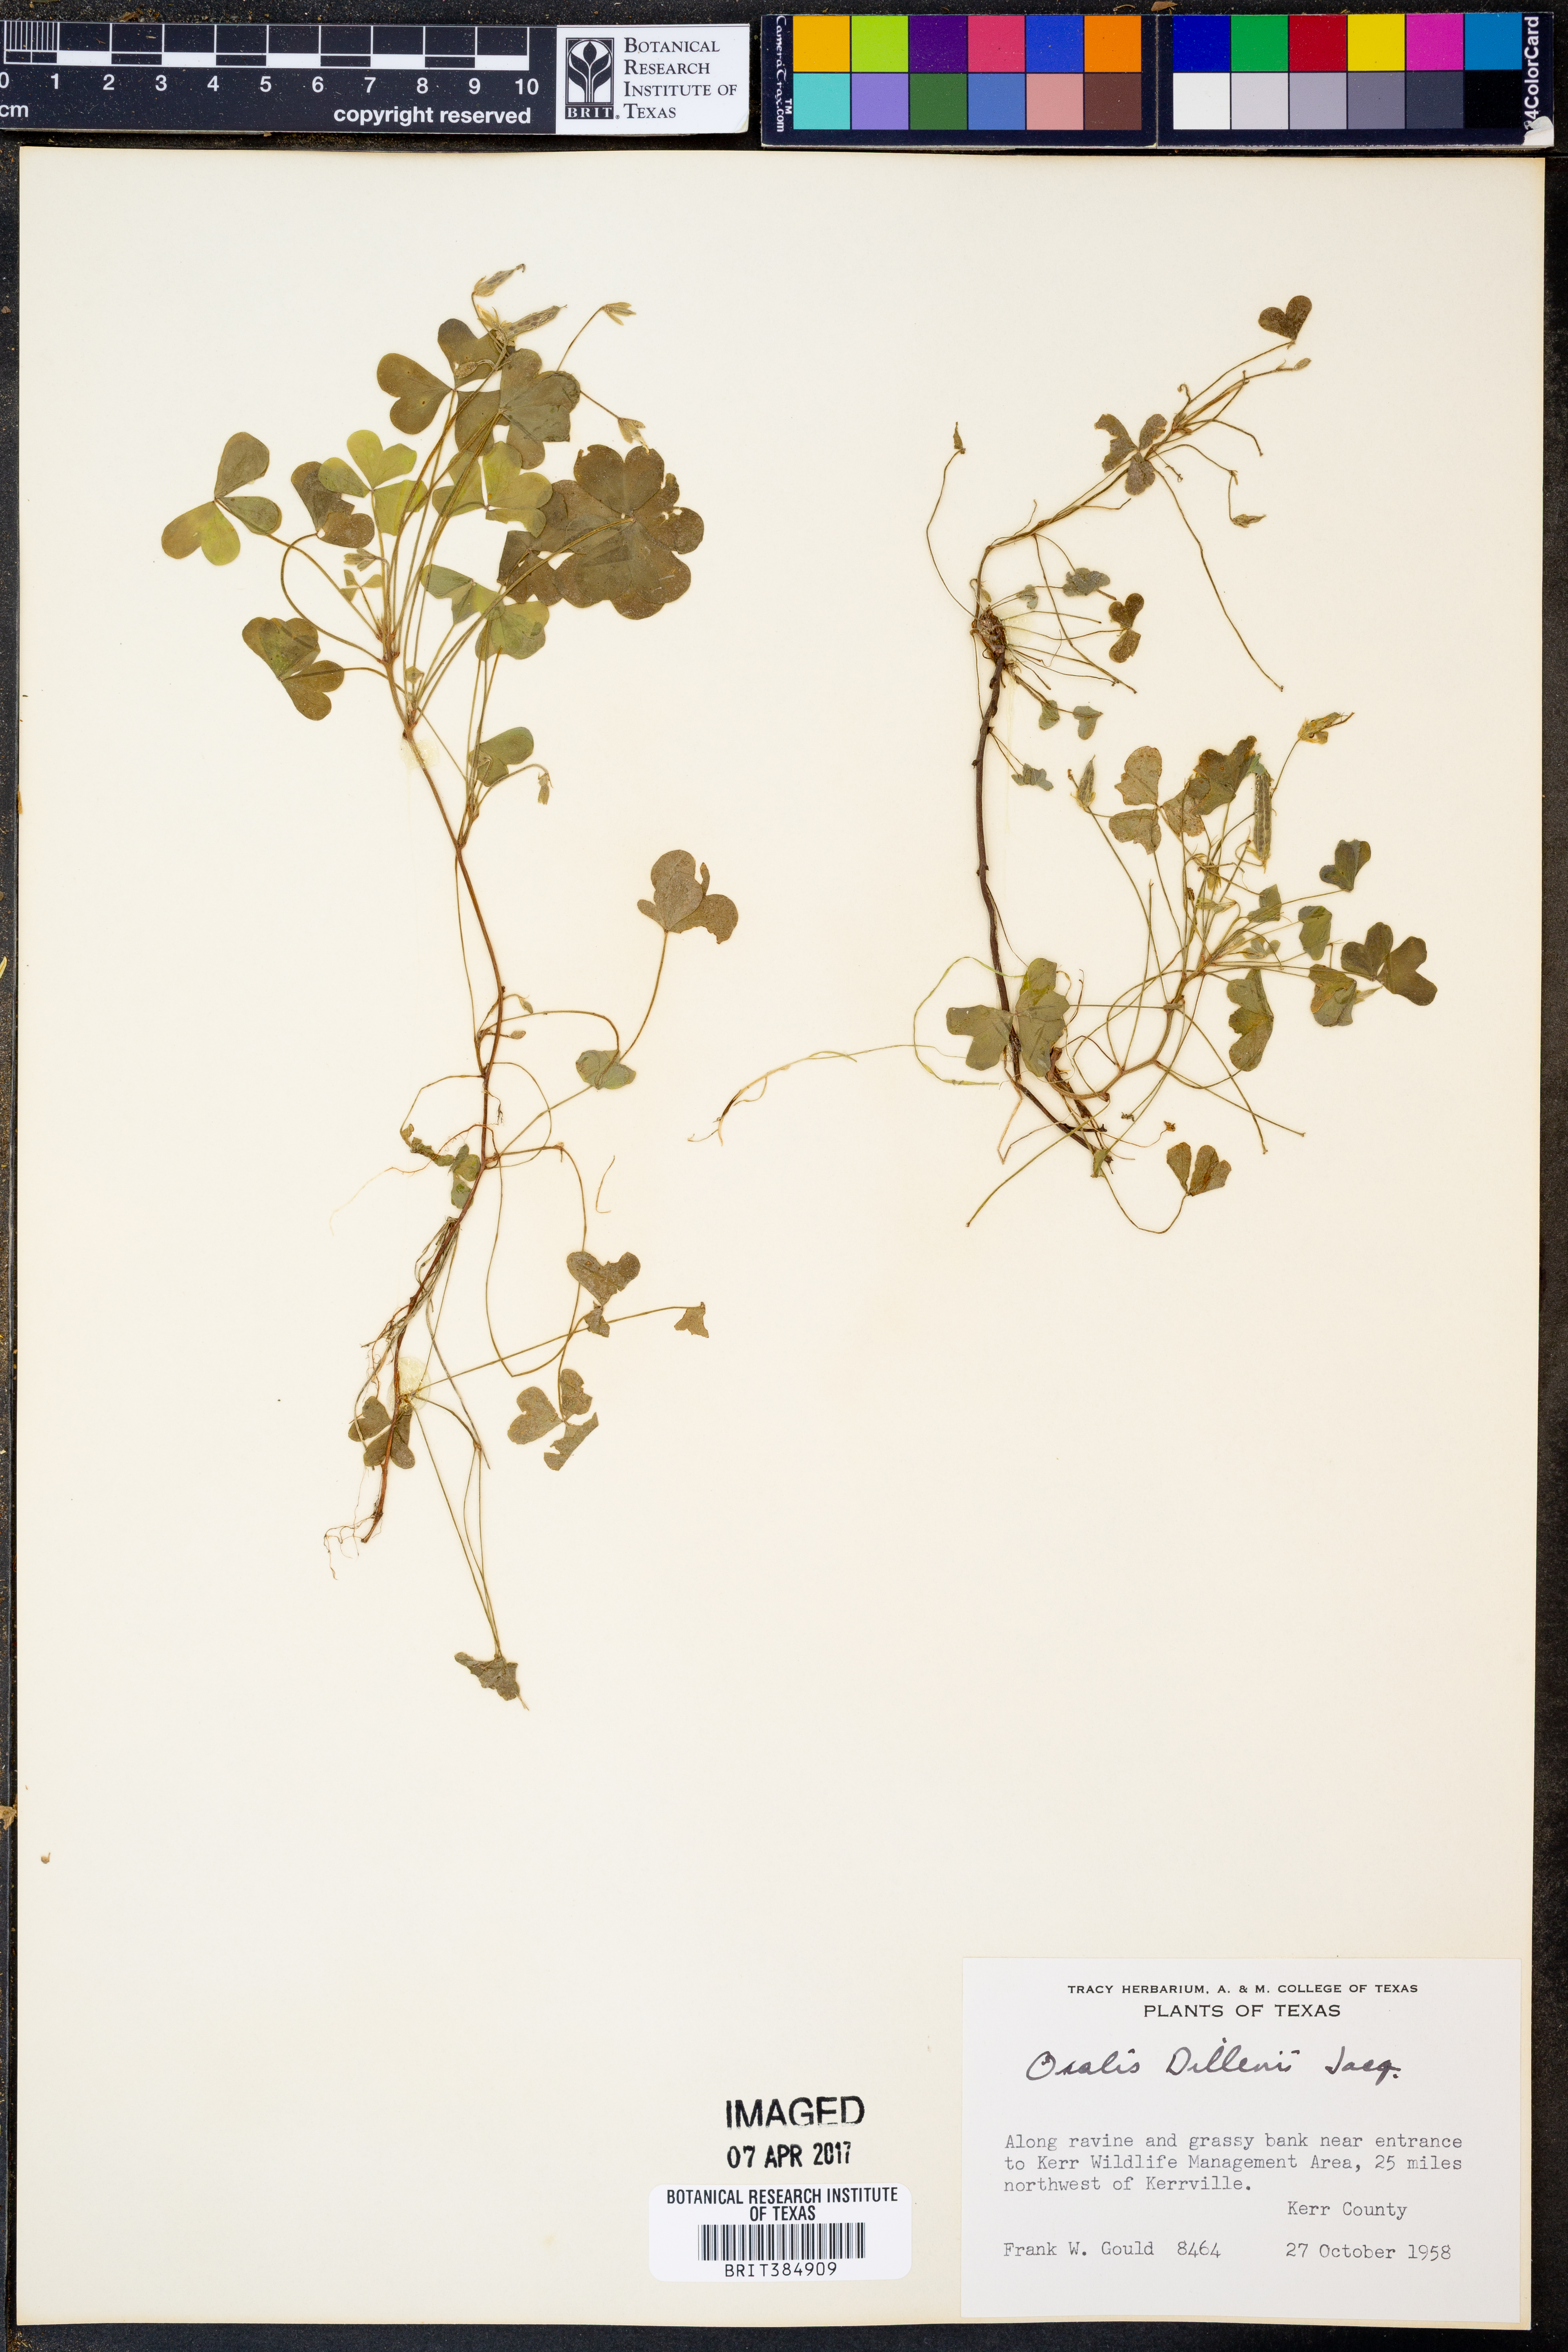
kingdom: Plantae
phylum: Tracheophyta
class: Magnoliopsida
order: Oxalidales
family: Oxalidaceae
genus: Oxalis
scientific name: Oxalis dillenii
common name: Sussex yellow-sorrel
